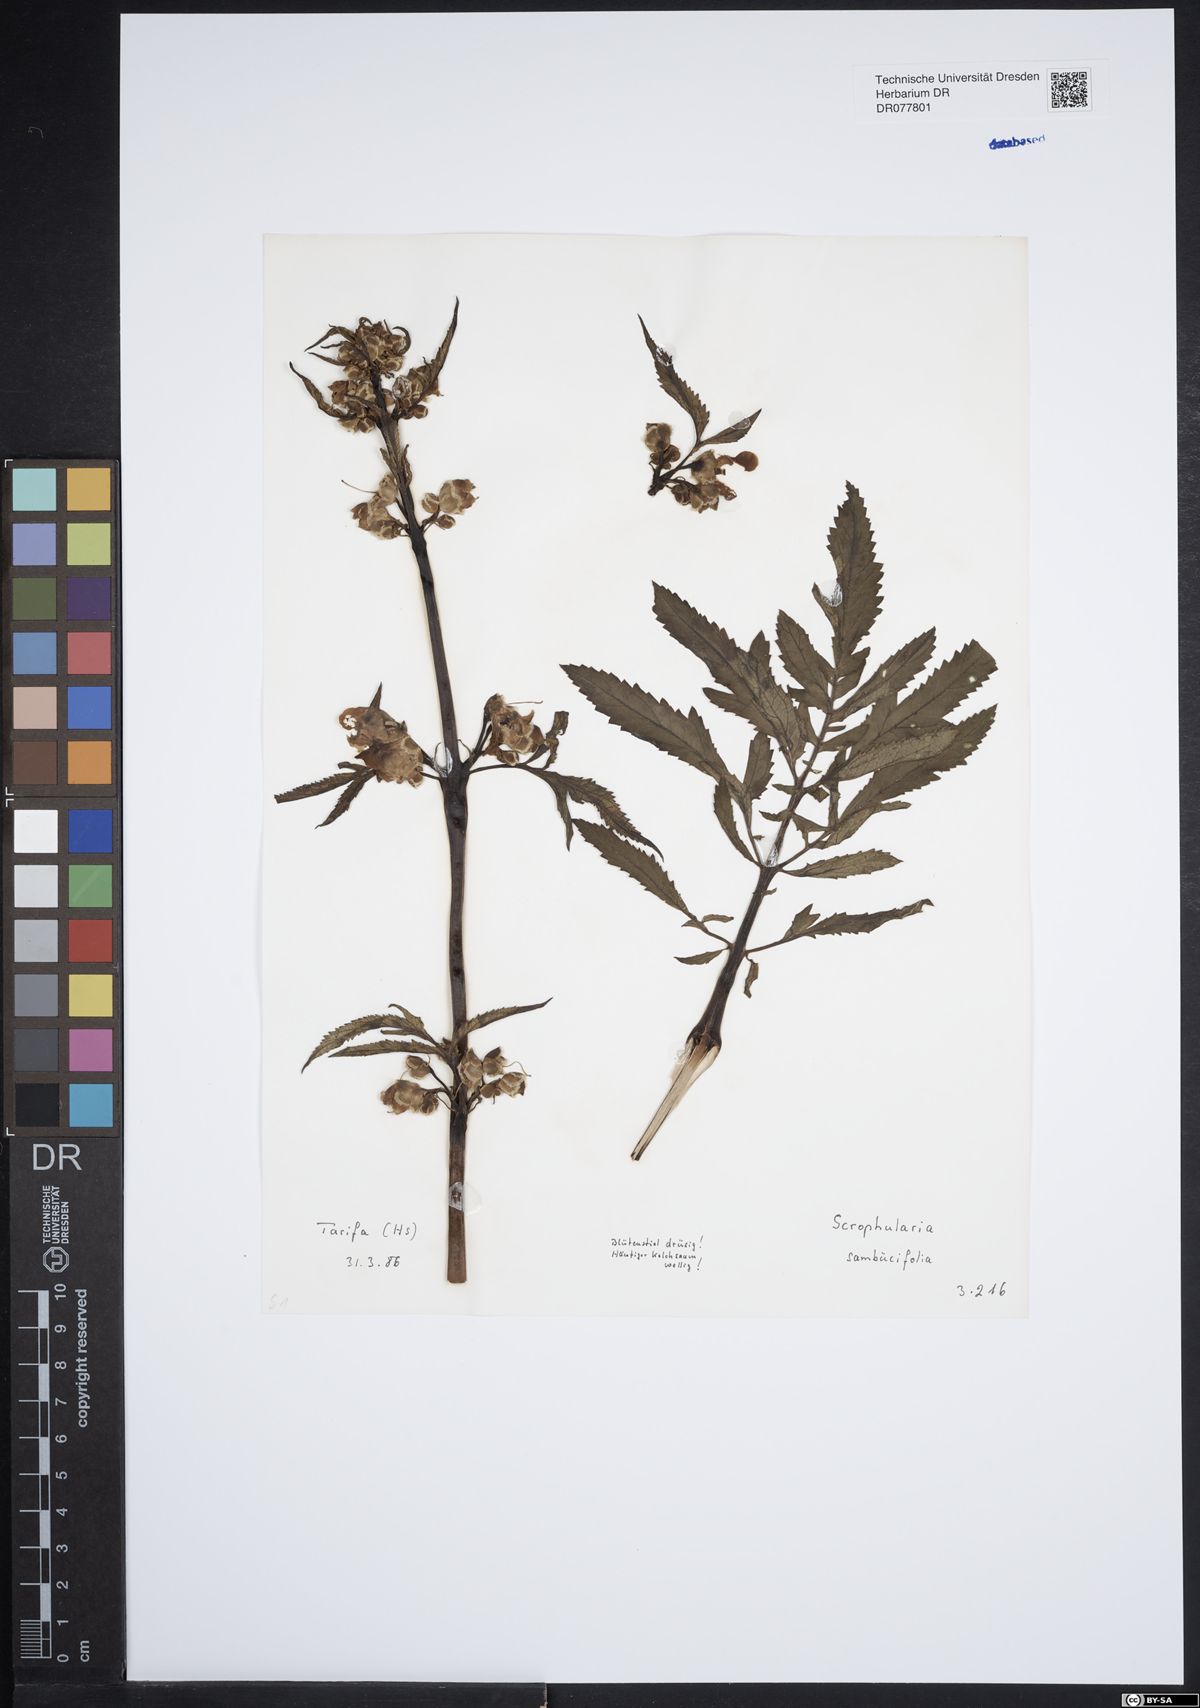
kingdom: Plantae
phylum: Tracheophyta
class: Magnoliopsida
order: Lamiales
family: Scrophulariaceae
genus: Scrophularia
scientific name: Scrophularia sambucifolia
